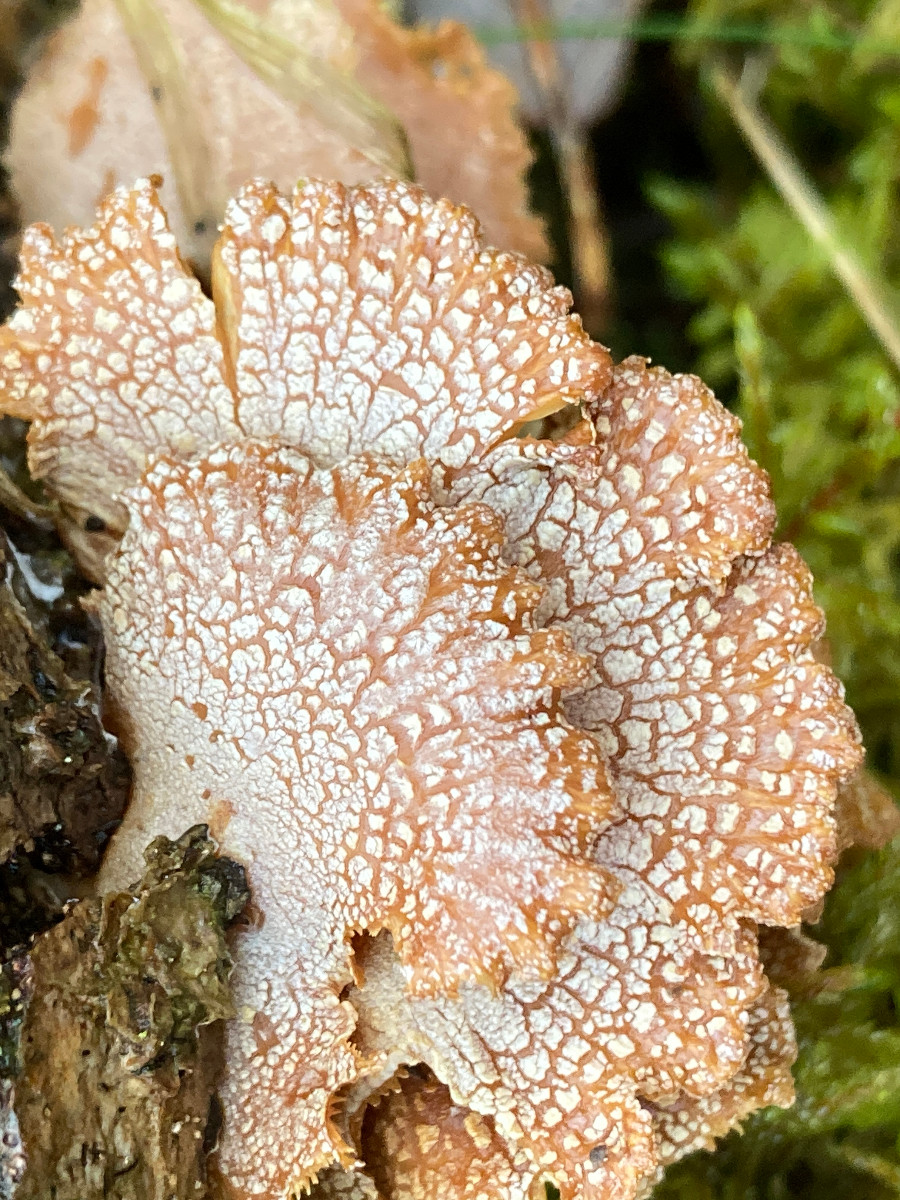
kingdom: Fungi
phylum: Basidiomycota
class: Agaricomycetes
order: Agaricales
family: Mycenaceae
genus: Panellus
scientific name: Panellus stipticus
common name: kliddet epaulethat
